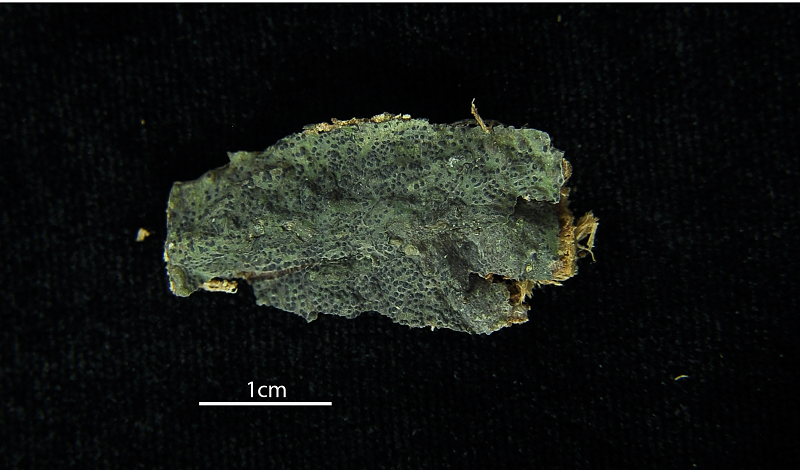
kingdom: Fungi
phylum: Ascomycota
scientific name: Ascomycota
